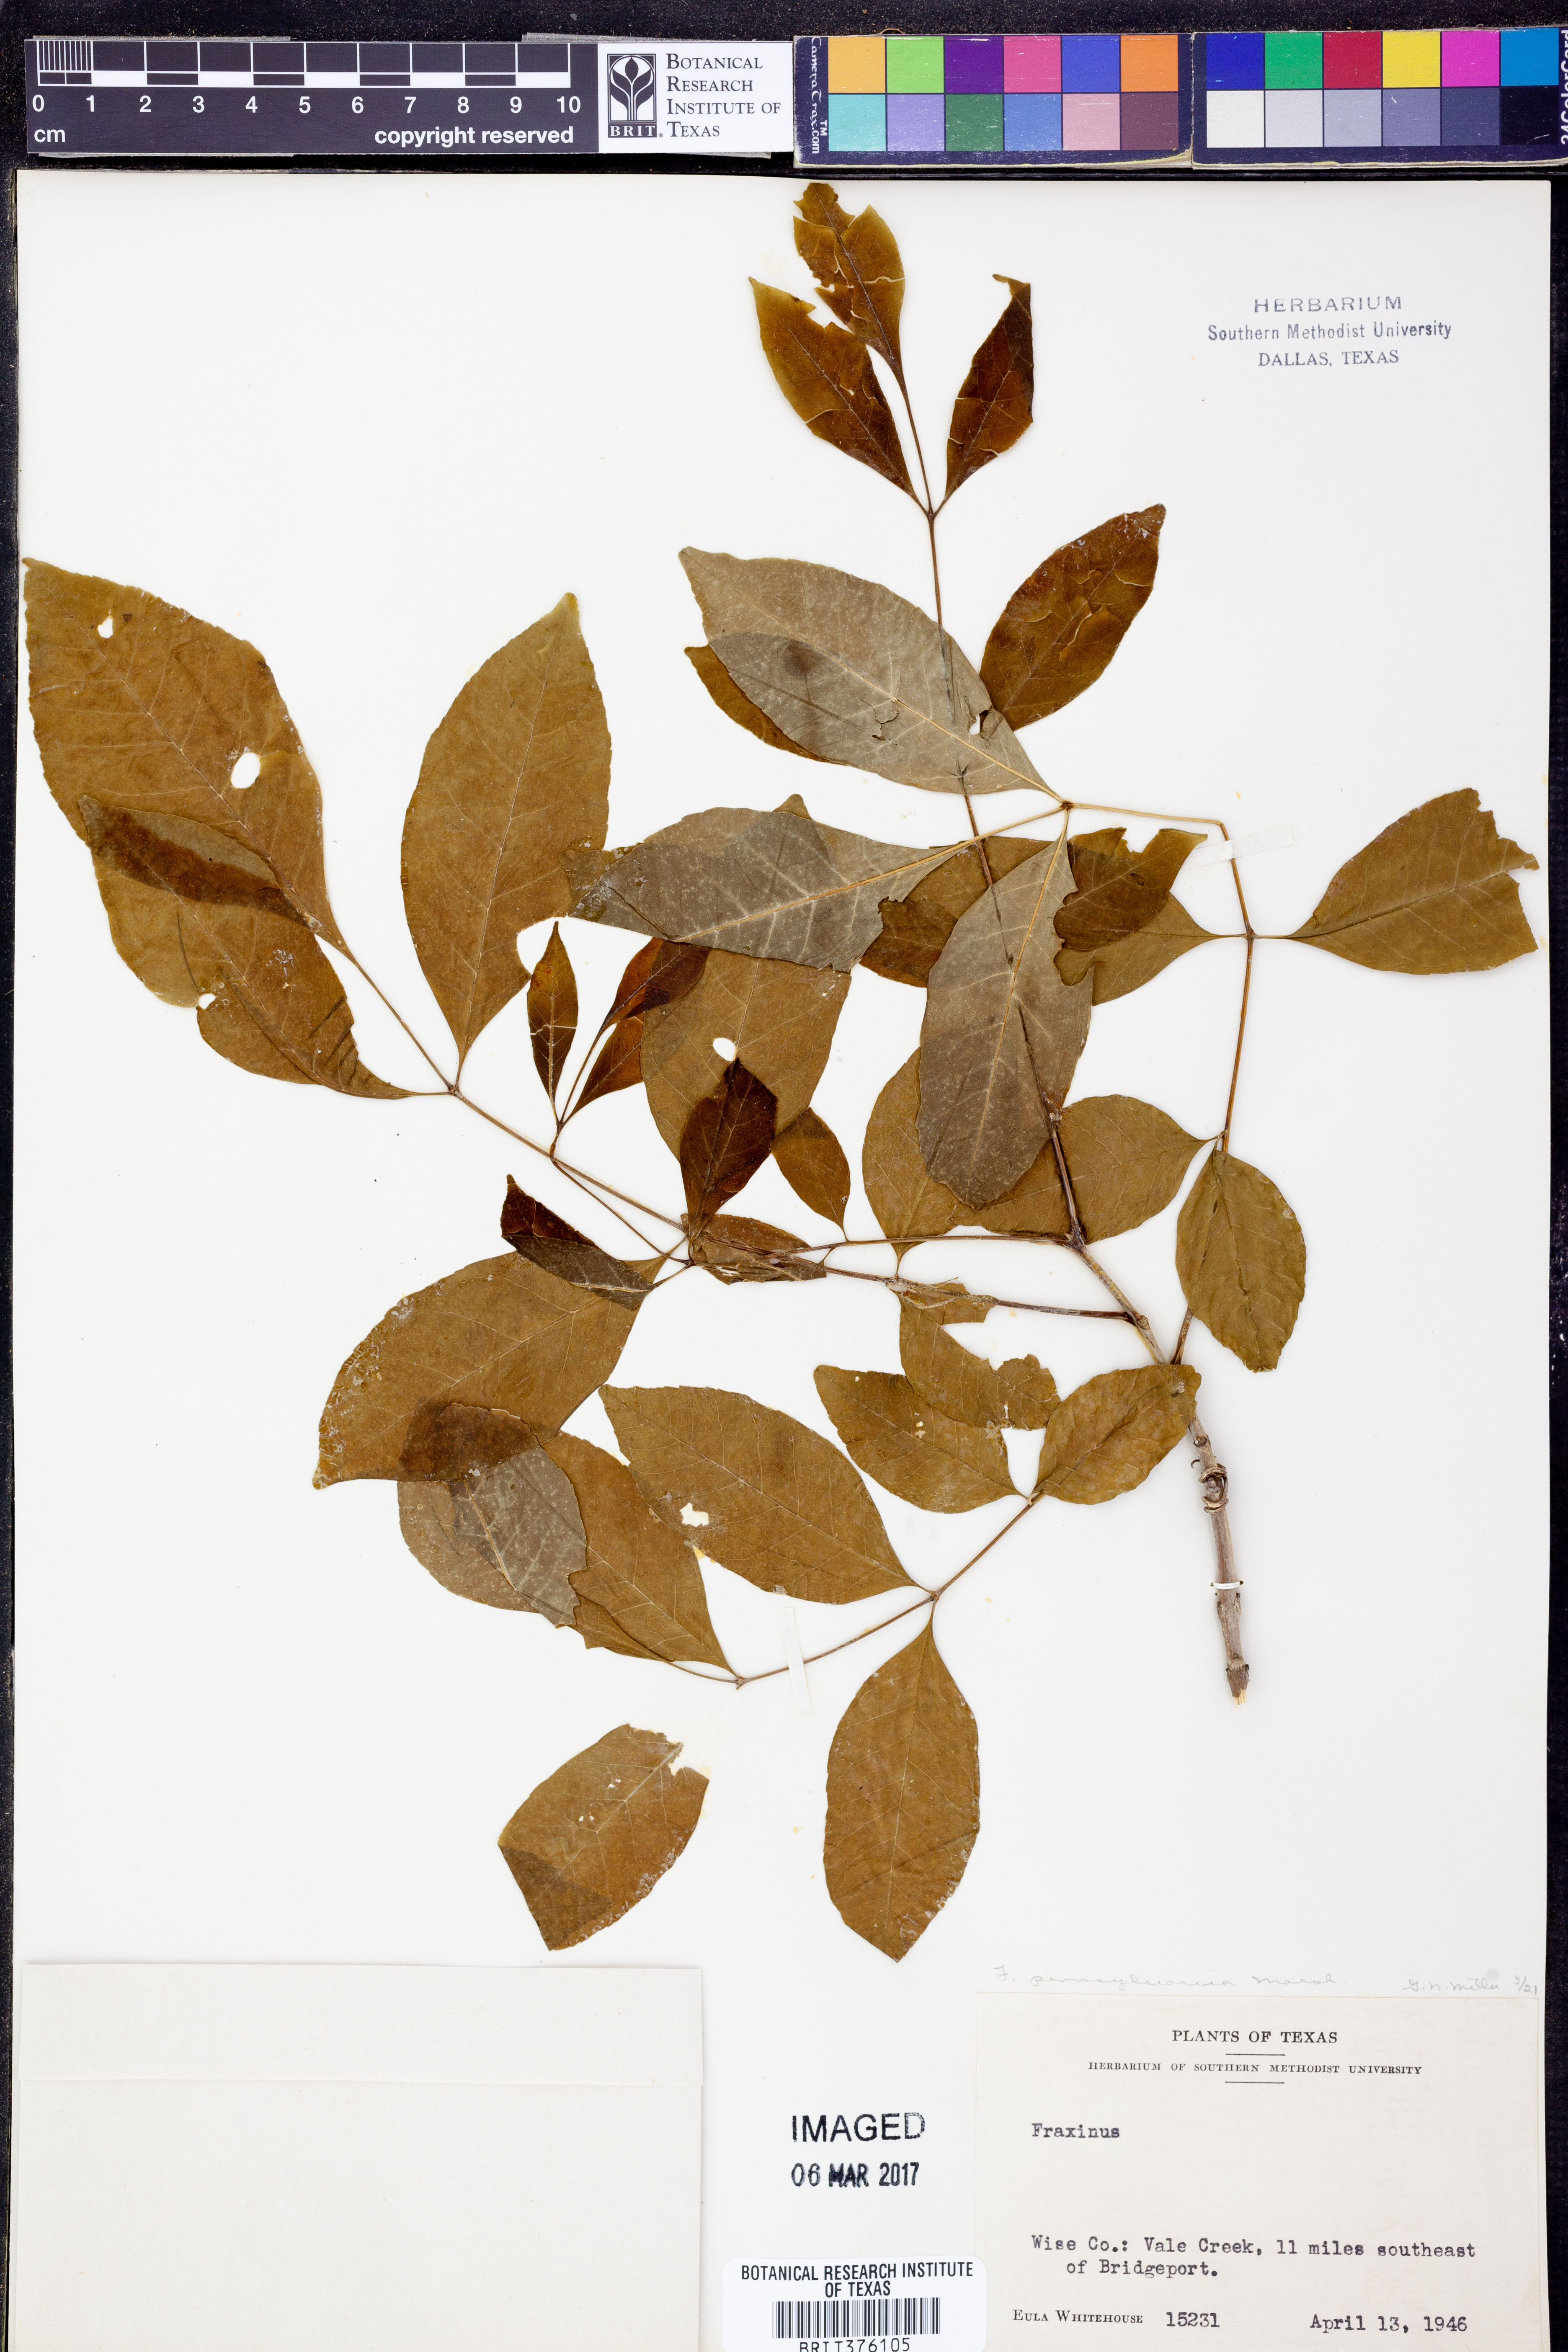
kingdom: Plantae
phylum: Tracheophyta
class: Magnoliopsida
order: Lamiales
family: Oleaceae
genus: Fraxinus
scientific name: Fraxinus pennsylvanica
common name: Green ash
